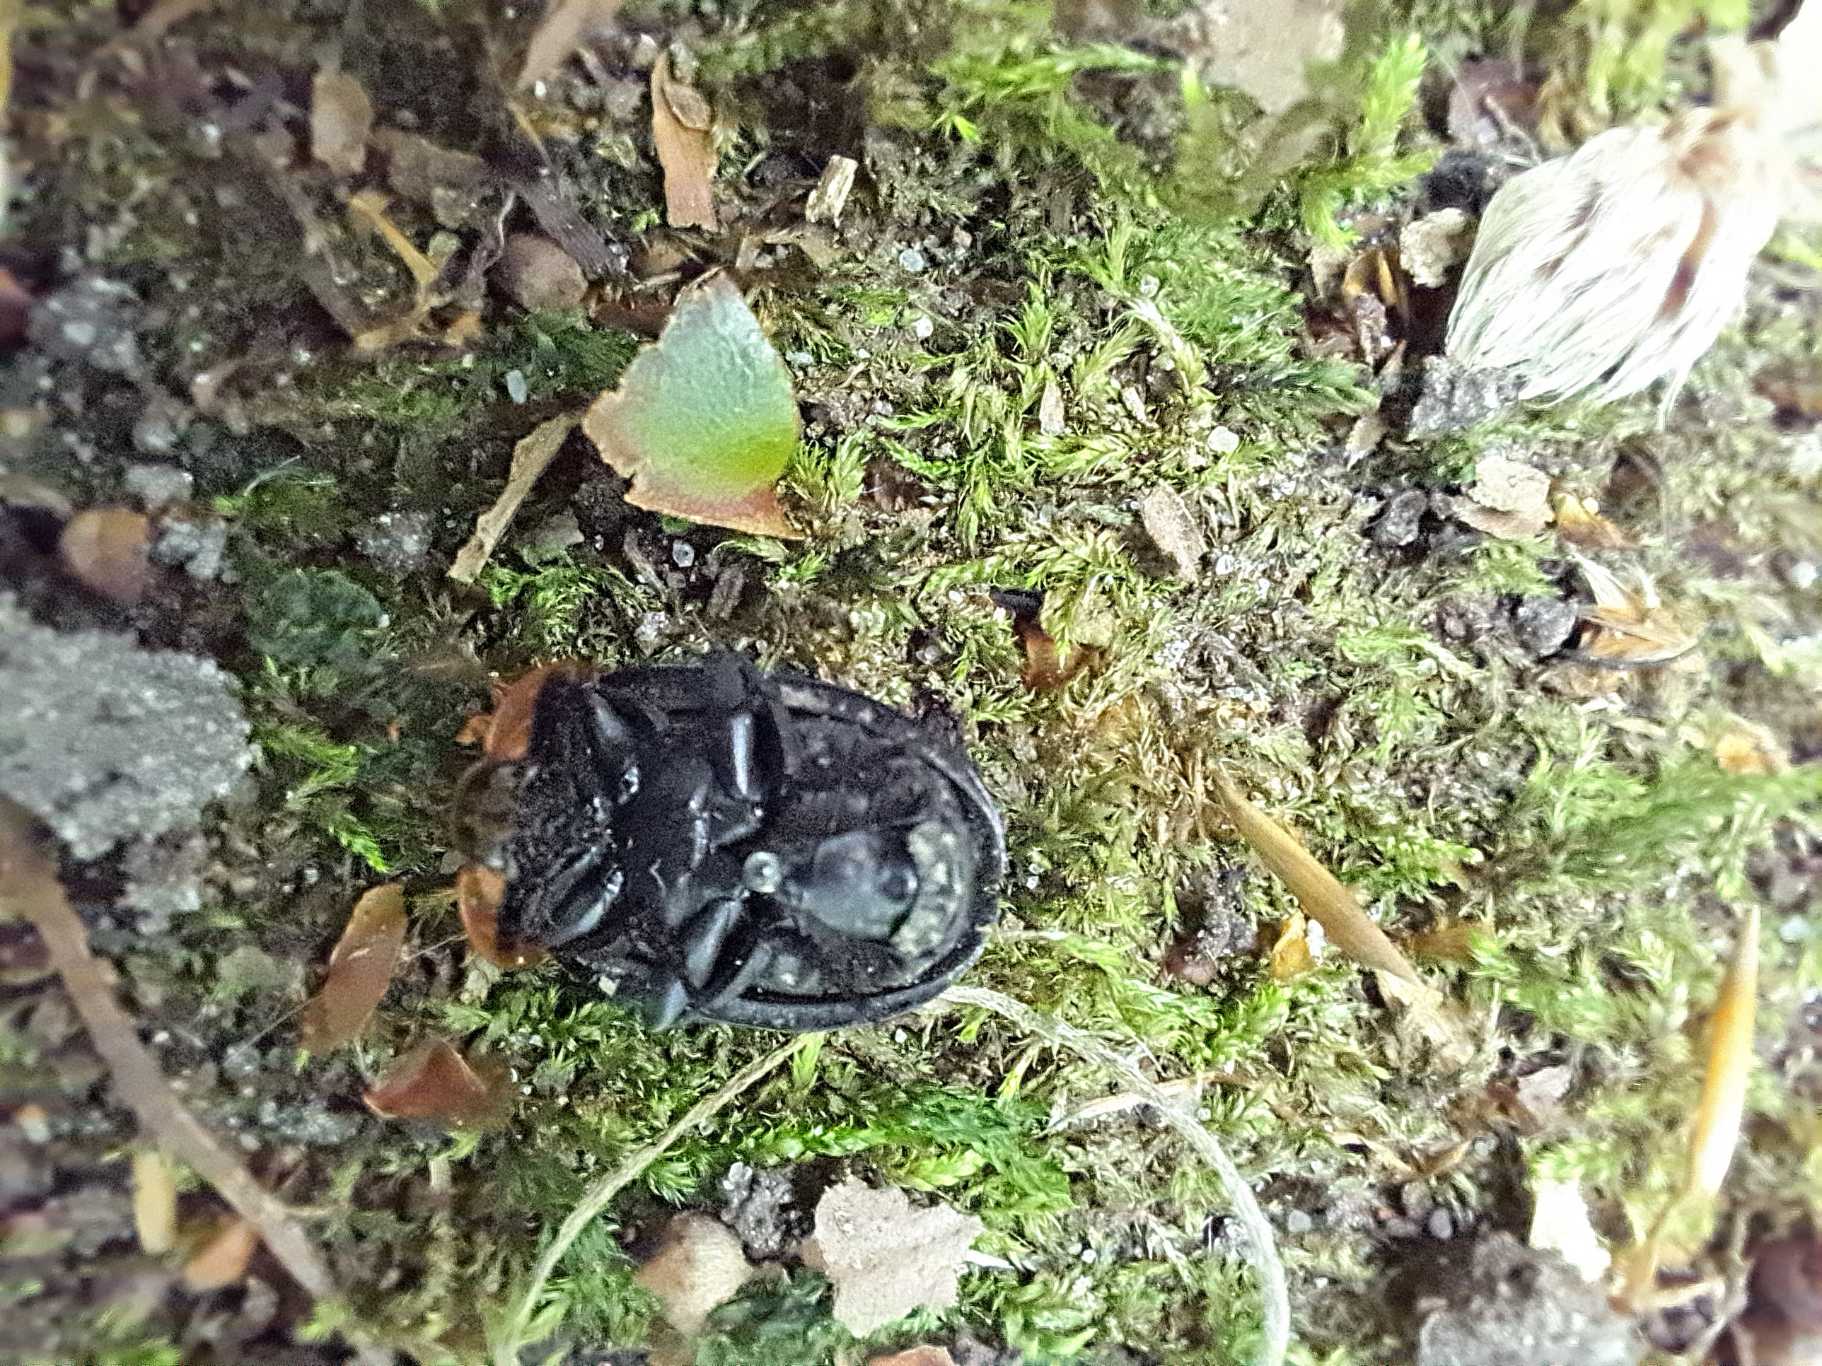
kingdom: Animalia
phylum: Arthropoda
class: Insecta
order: Coleoptera
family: Staphylinidae
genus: Oiceoptoma
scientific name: Oiceoptoma thoracicum
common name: Rødbrystet ådselbille
